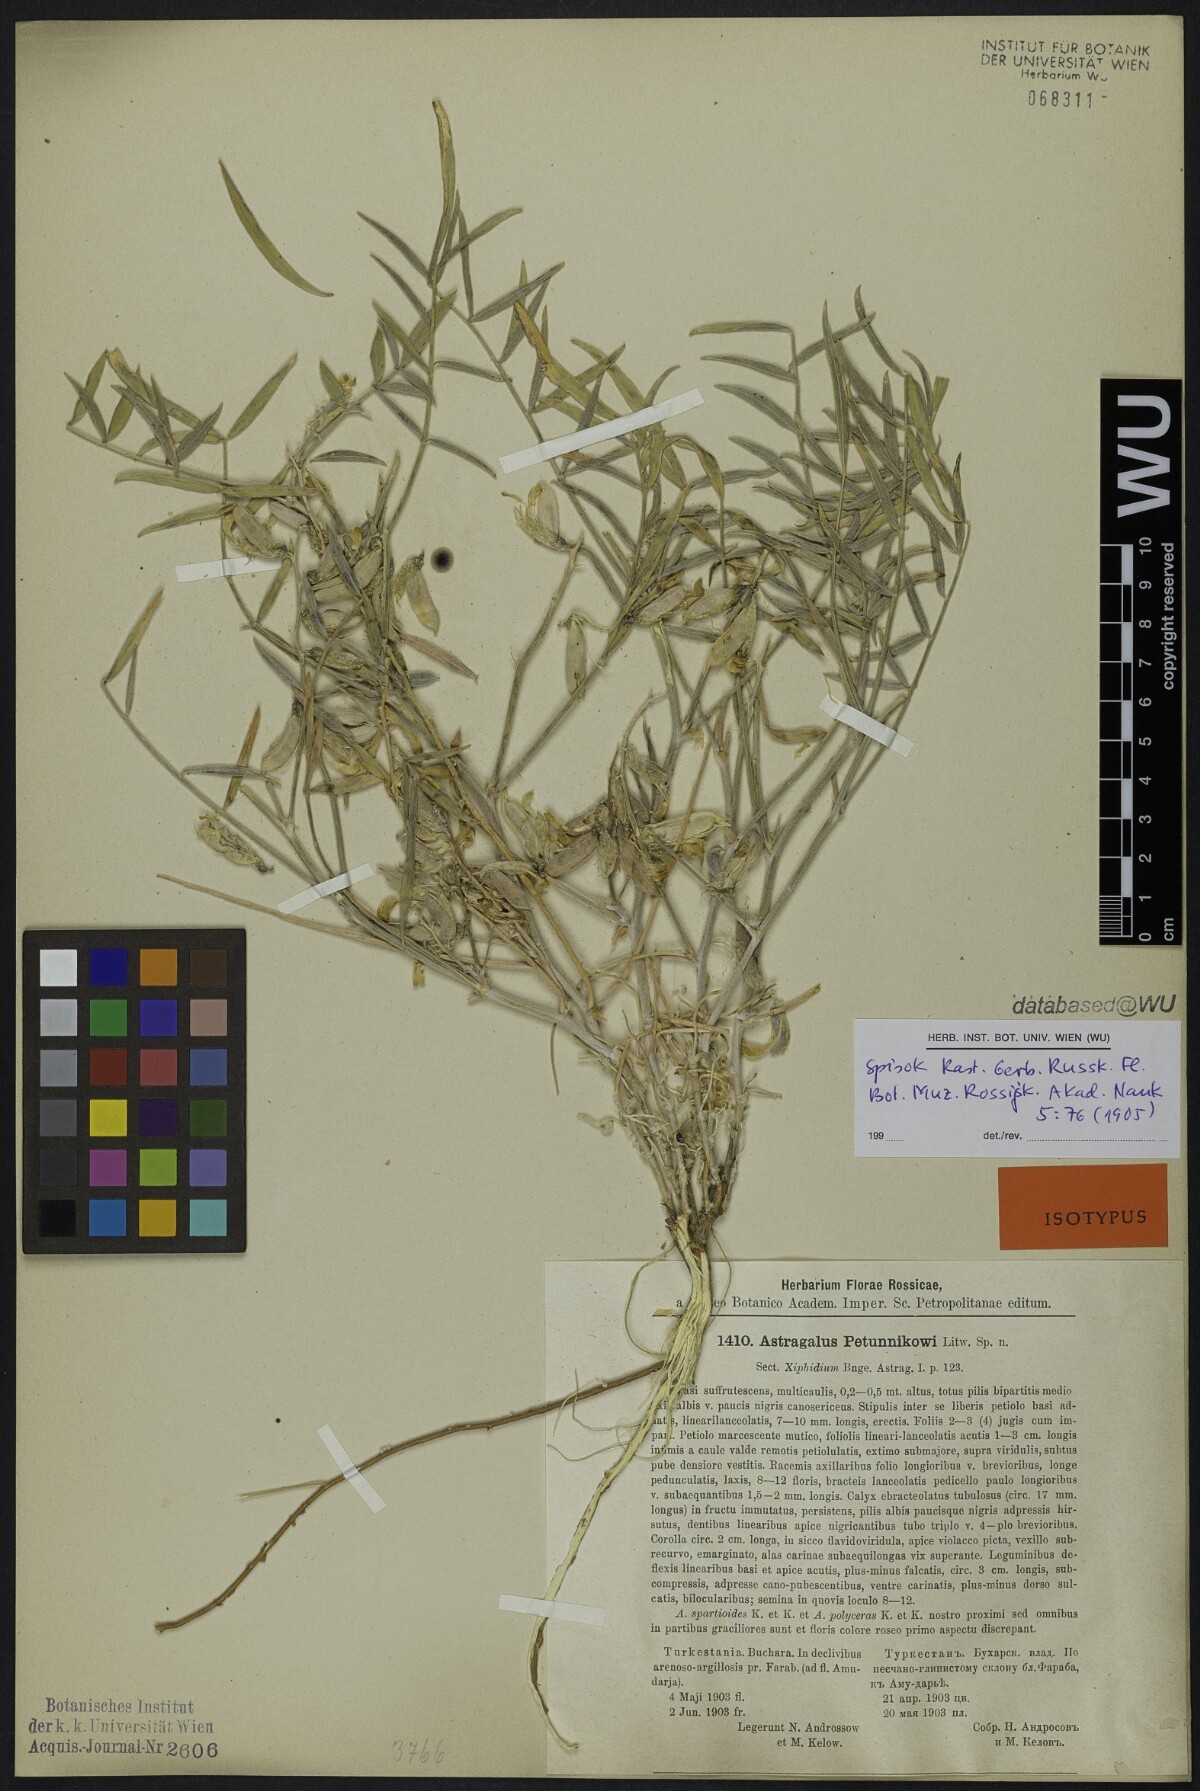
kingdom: Plantae
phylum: Tracheophyta
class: Magnoliopsida
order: Fabales
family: Fabaceae
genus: Astragalus
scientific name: Astragalus petunnikowii
